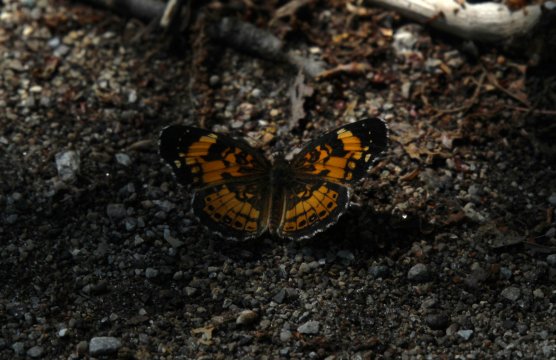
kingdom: Animalia
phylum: Arthropoda
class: Insecta
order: Lepidoptera
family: Nymphalidae
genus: Chlosyne
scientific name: Chlosyne nycteis
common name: Silvery Checkerspot
